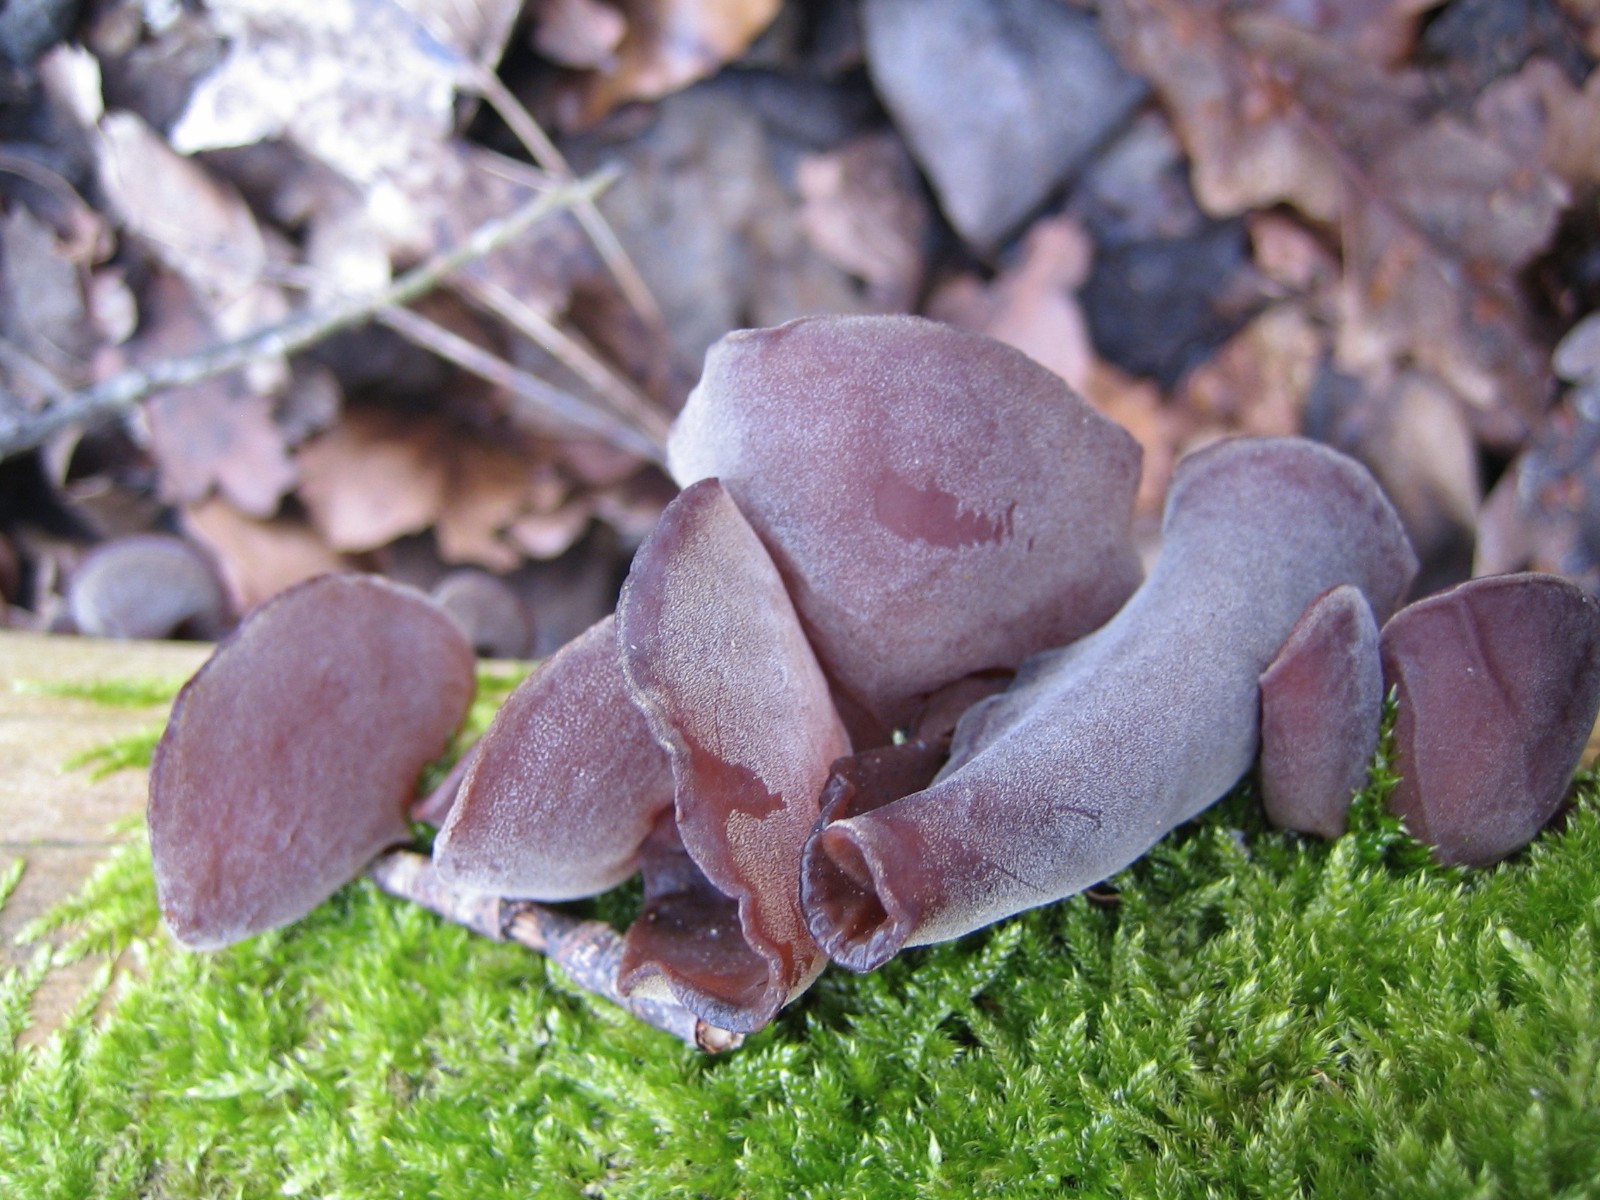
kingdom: Fungi
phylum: Basidiomycota
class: Agaricomycetes
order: Auriculariales
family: Auriculariaceae
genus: Auricularia
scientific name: Auricularia auricula-judae
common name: almindelig judasøre
